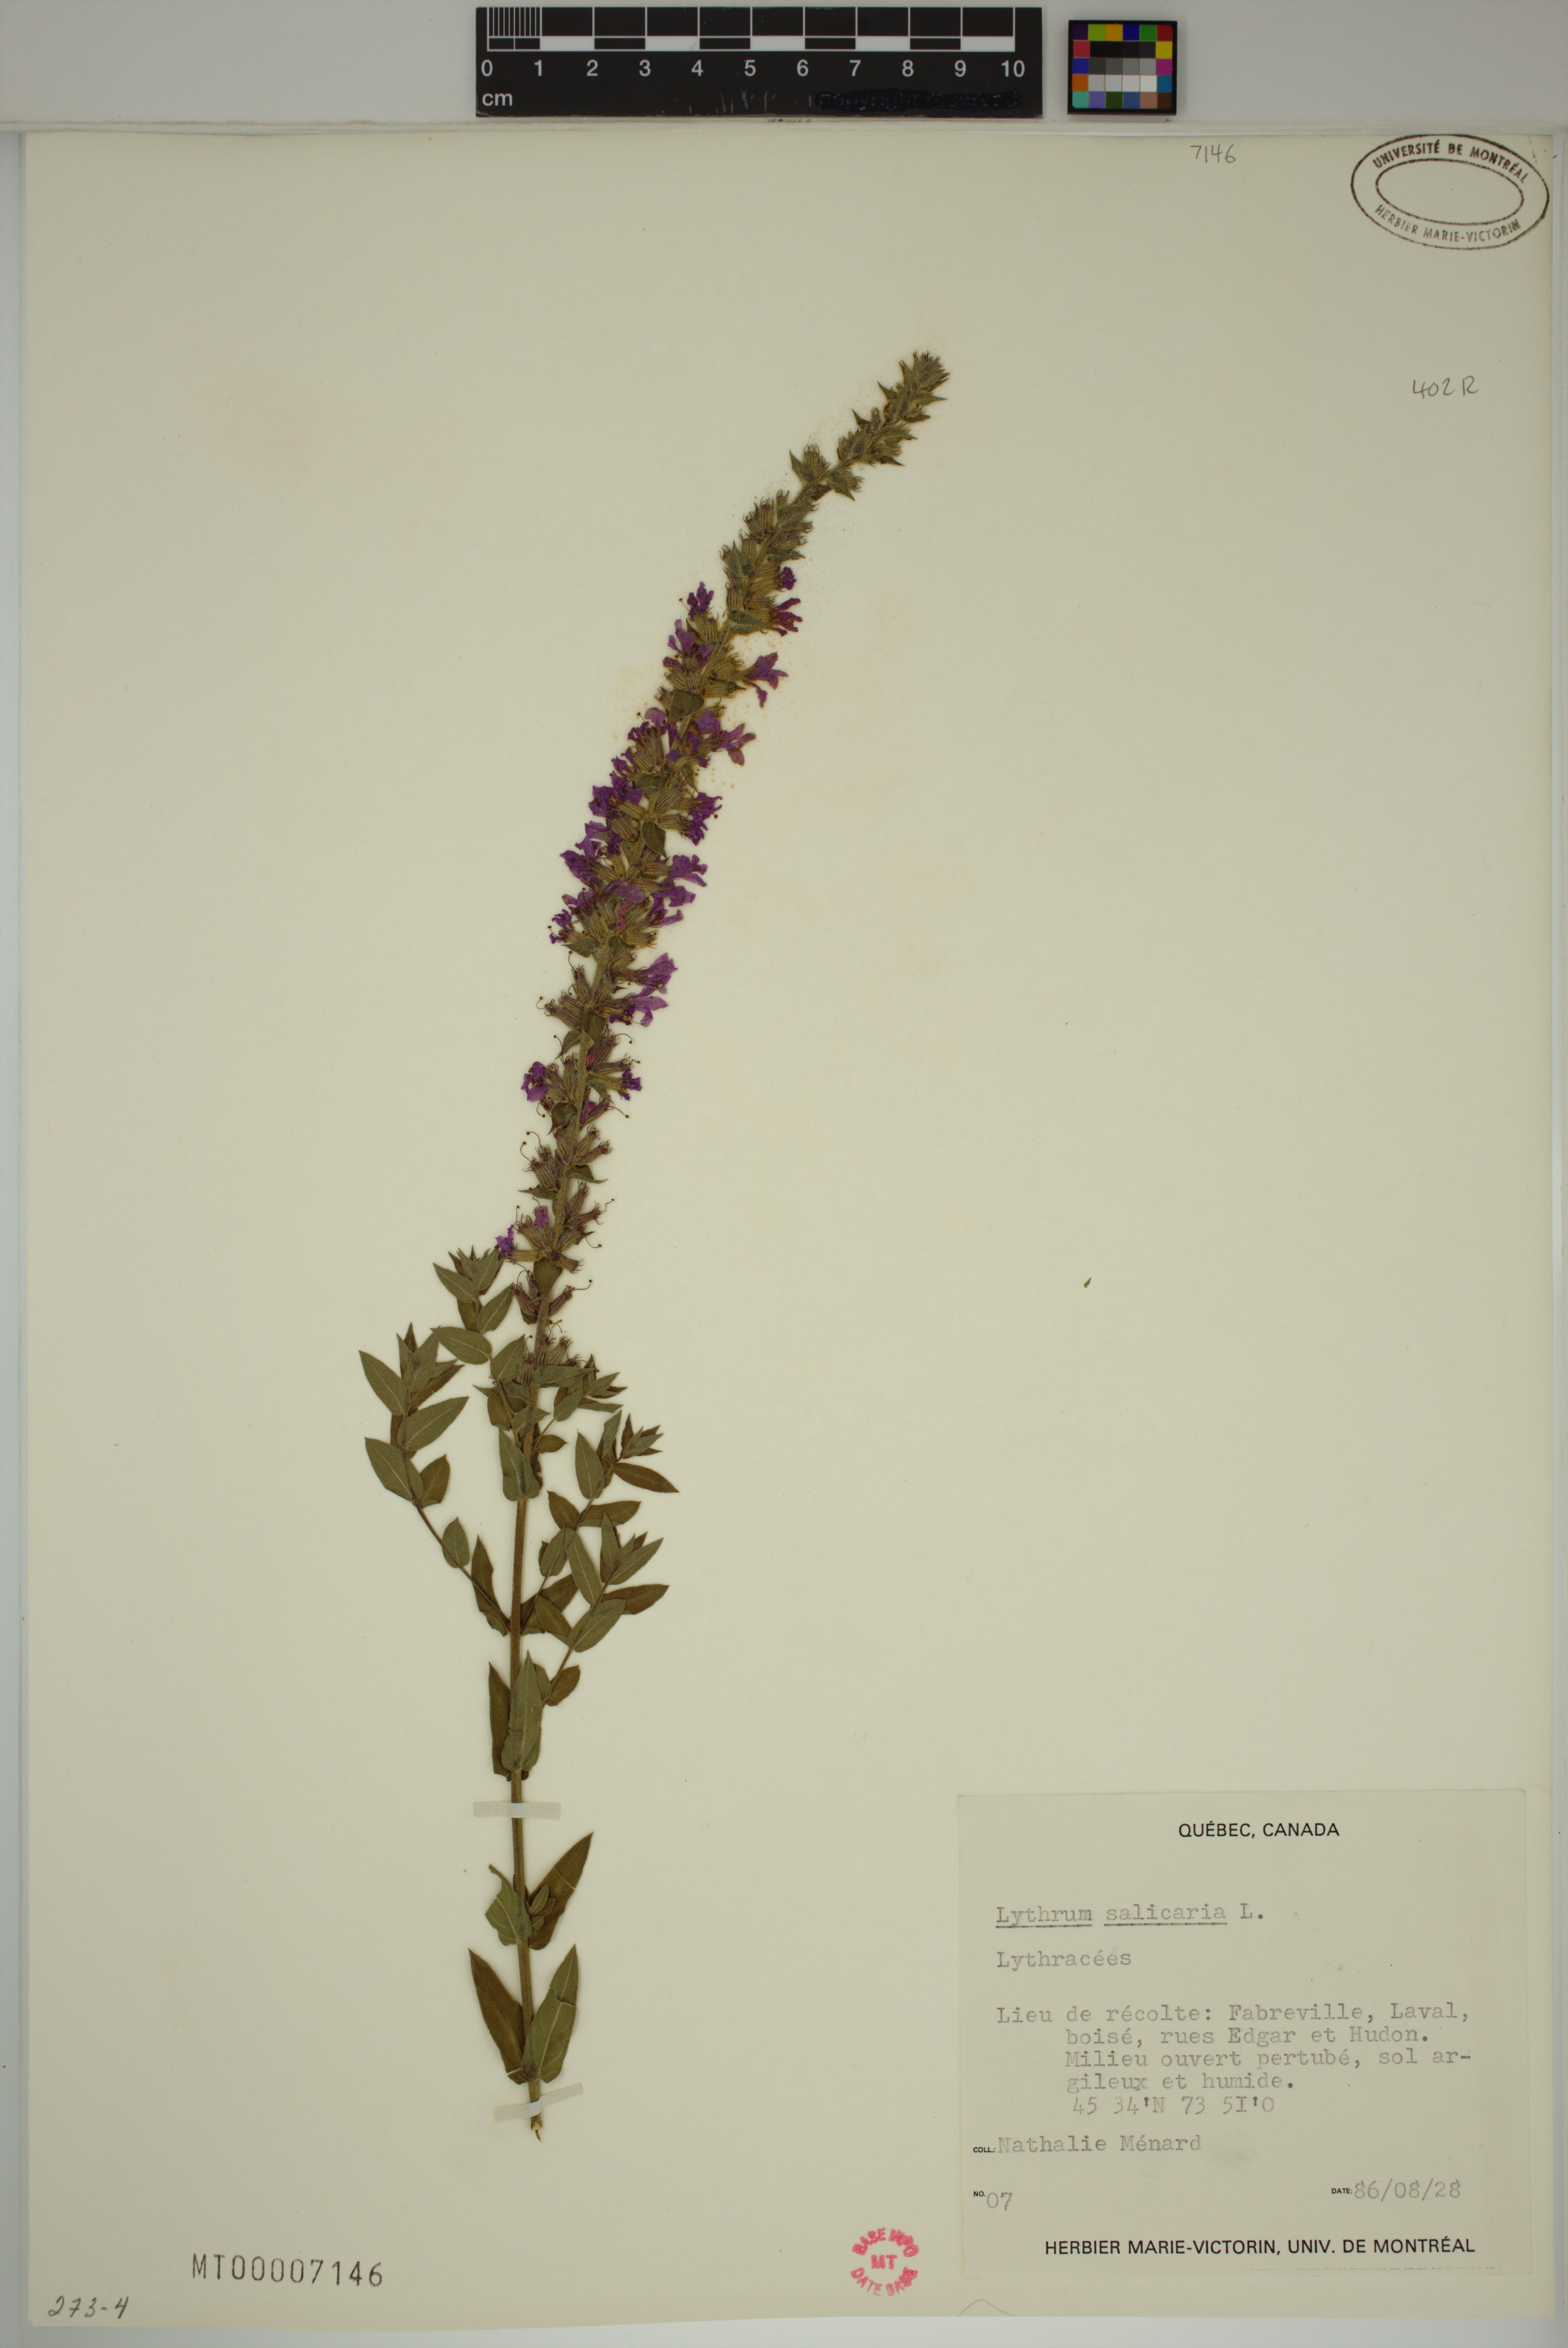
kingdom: Plantae
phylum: Tracheophyta
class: Magnoliopsida
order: Myrtales
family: Lythraceae
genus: Lythrum
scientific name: Lythrum salicaria
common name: Purple loosestrife
